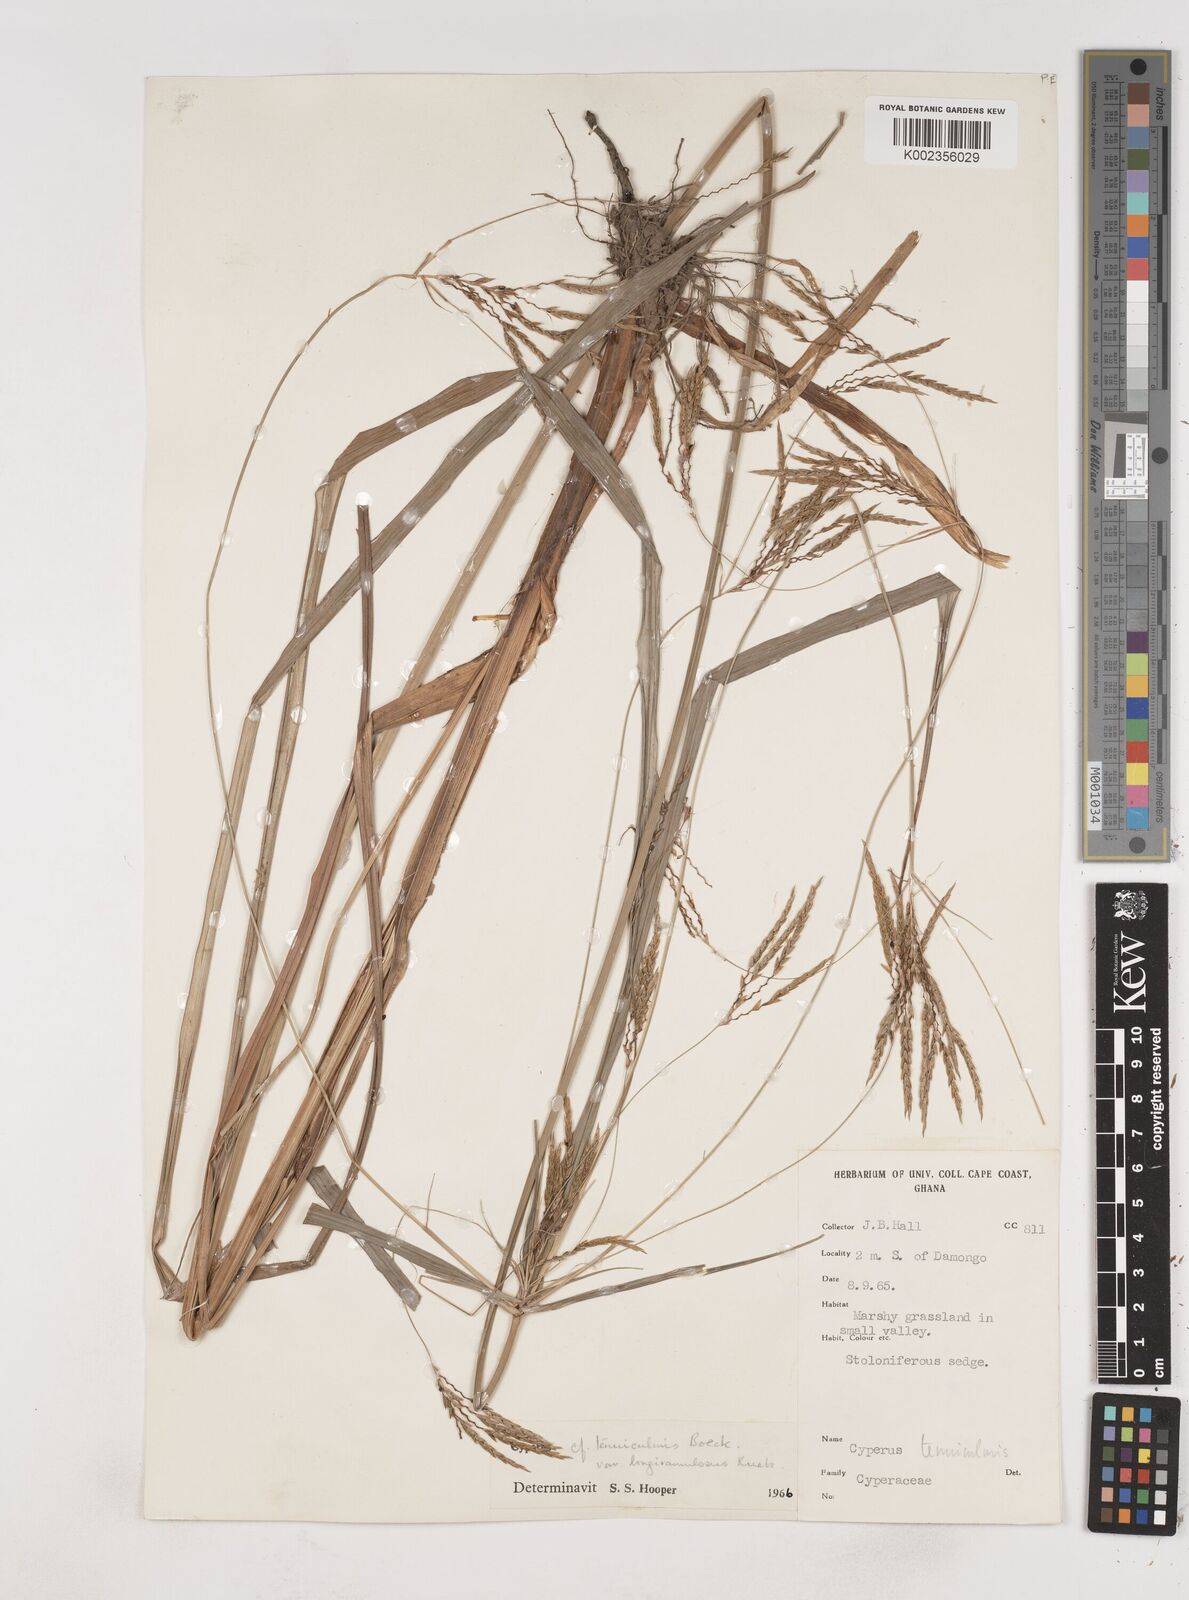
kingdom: Plantae
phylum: Tracheophyta
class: Liliopsida
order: Poales
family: Cyperaceae
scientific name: Cyperaceae
